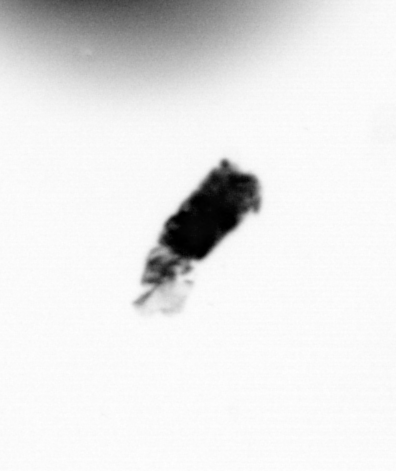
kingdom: Animalia
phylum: Arthropoda
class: Copepoda
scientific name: Copepoda
